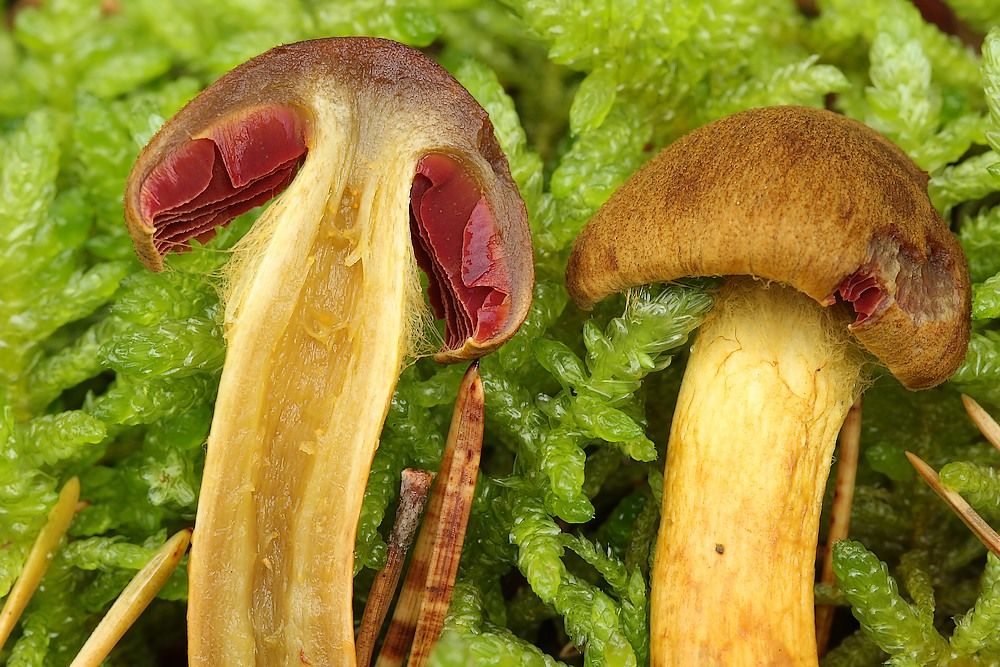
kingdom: Fungi
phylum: Basidiomycota
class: Agaricomycetes
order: Agaricales
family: Cortinariaceae
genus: Cortinarius
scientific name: Cortinarius
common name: cinnoberbladet slørhat
